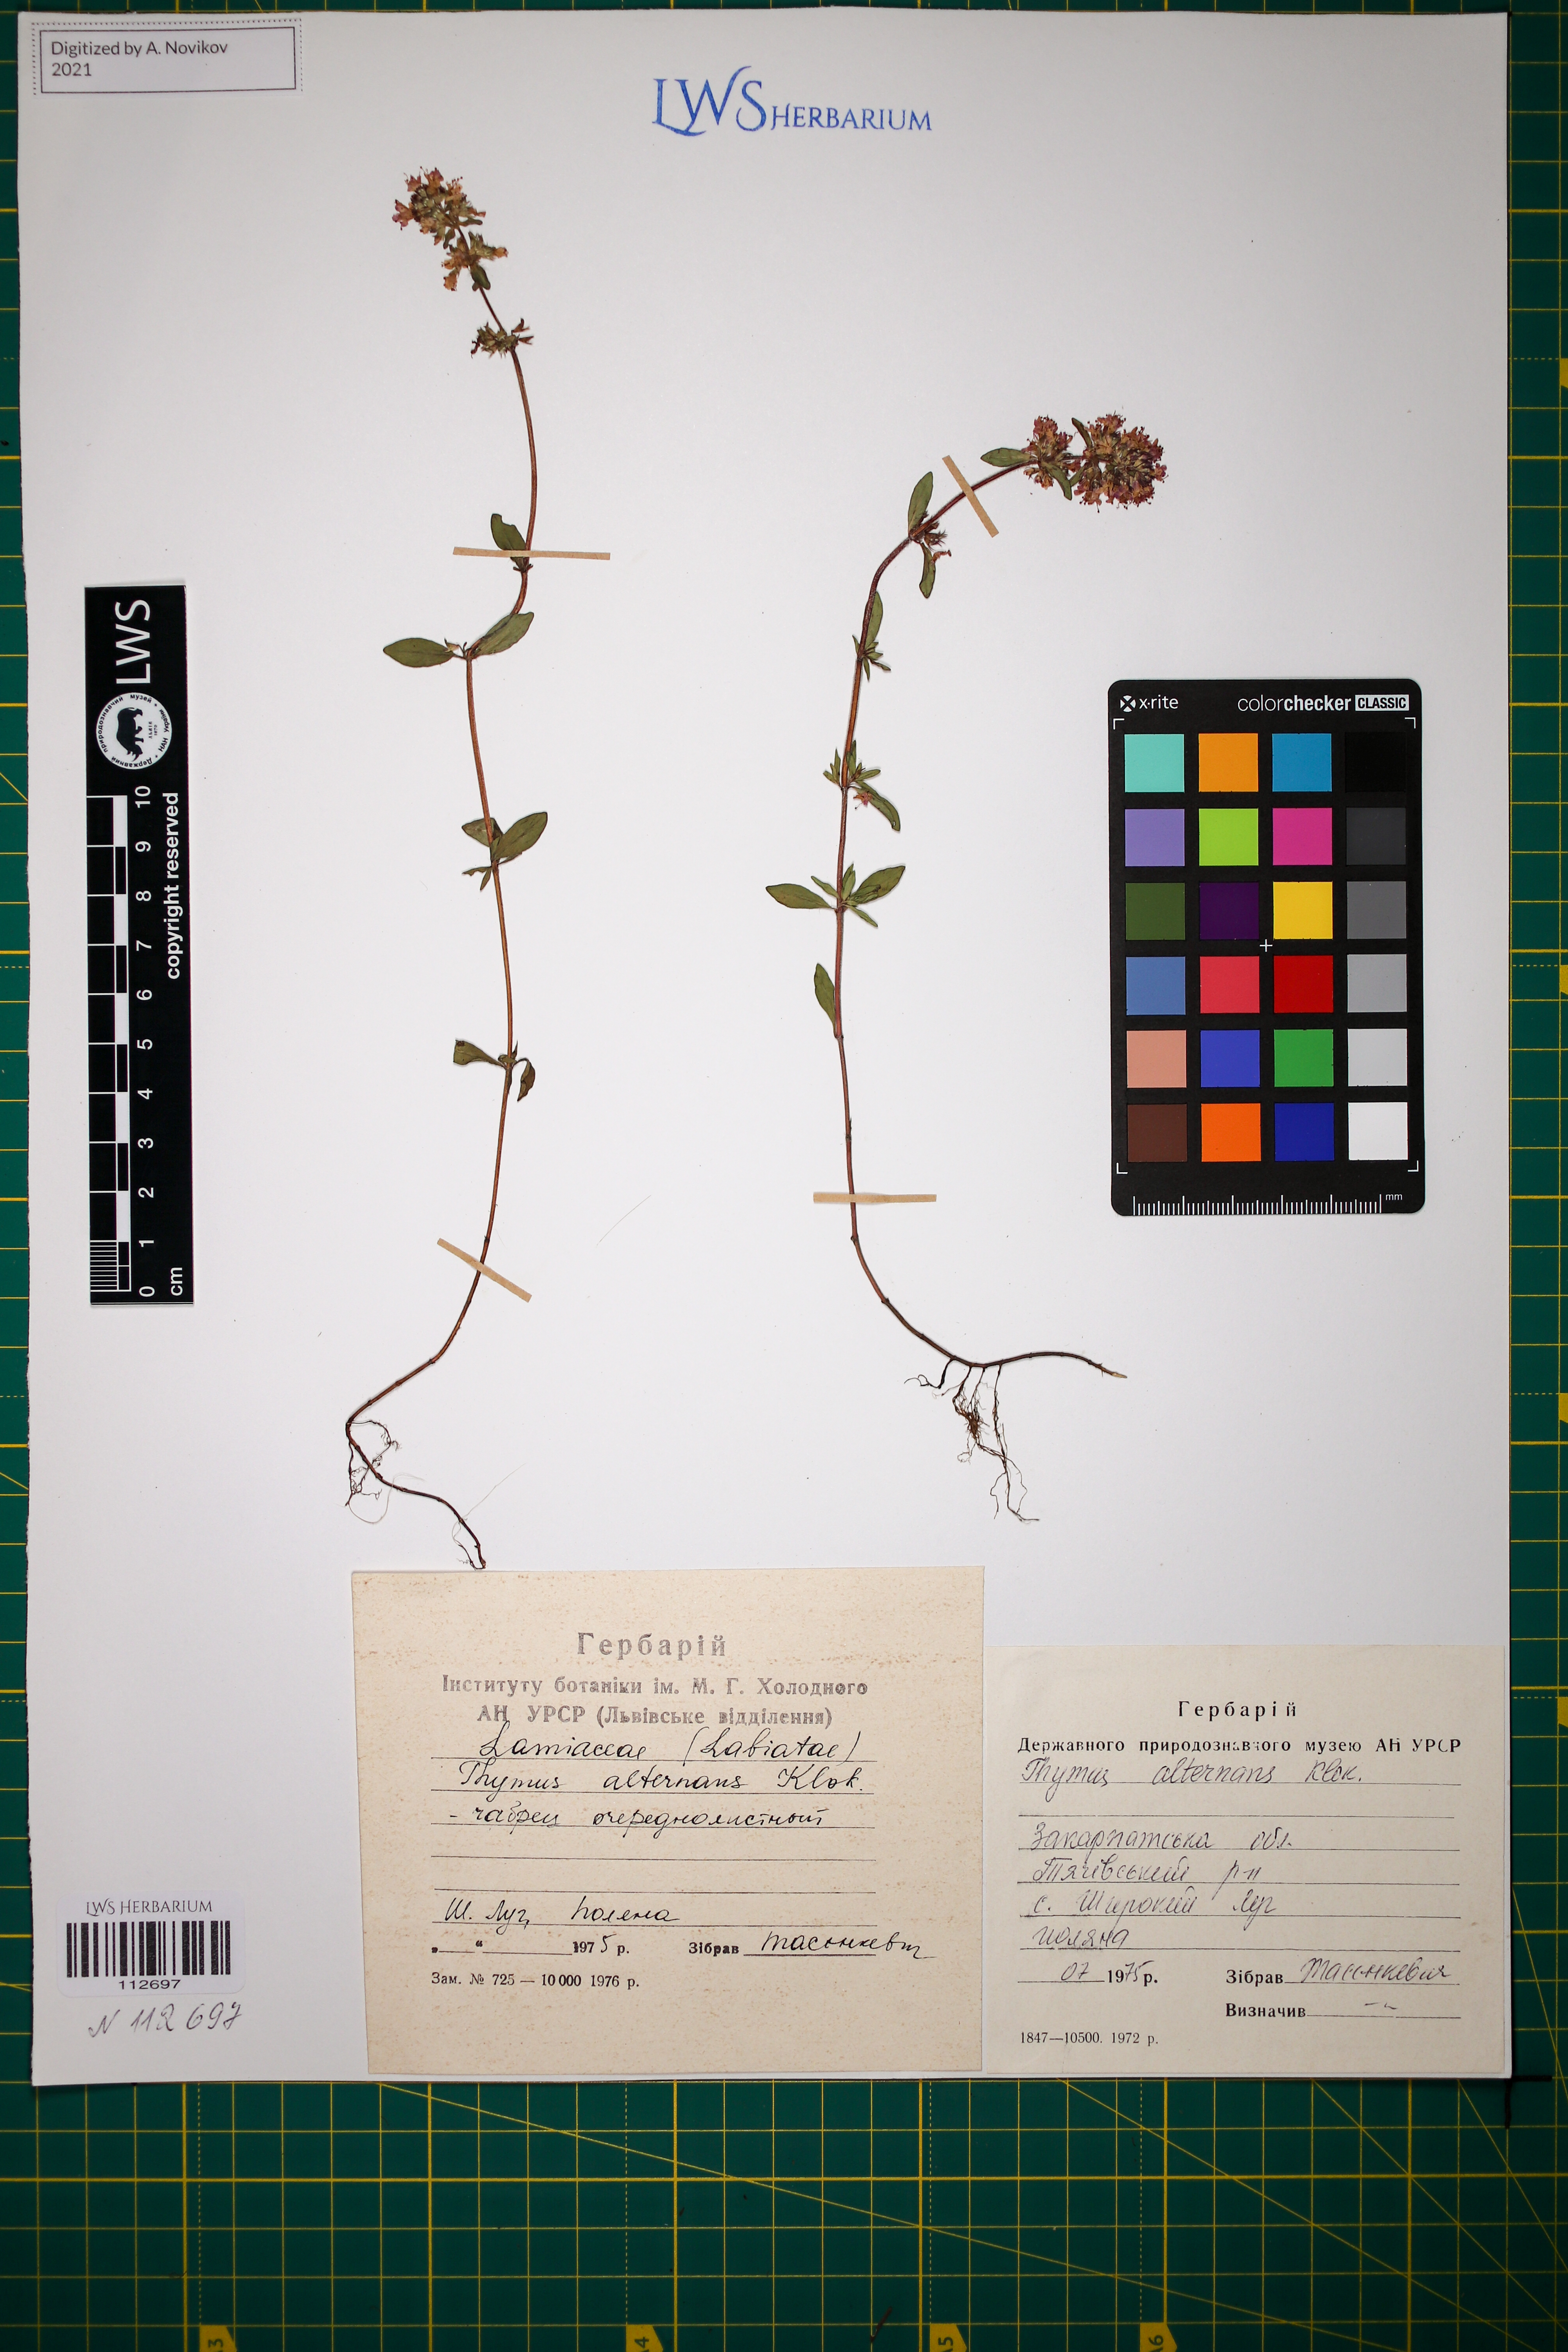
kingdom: Plantae
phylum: Tracheophyta
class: Magnoliopsida
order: Lamiales
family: Lamiaceae
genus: Thymus
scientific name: Thymus alternans
